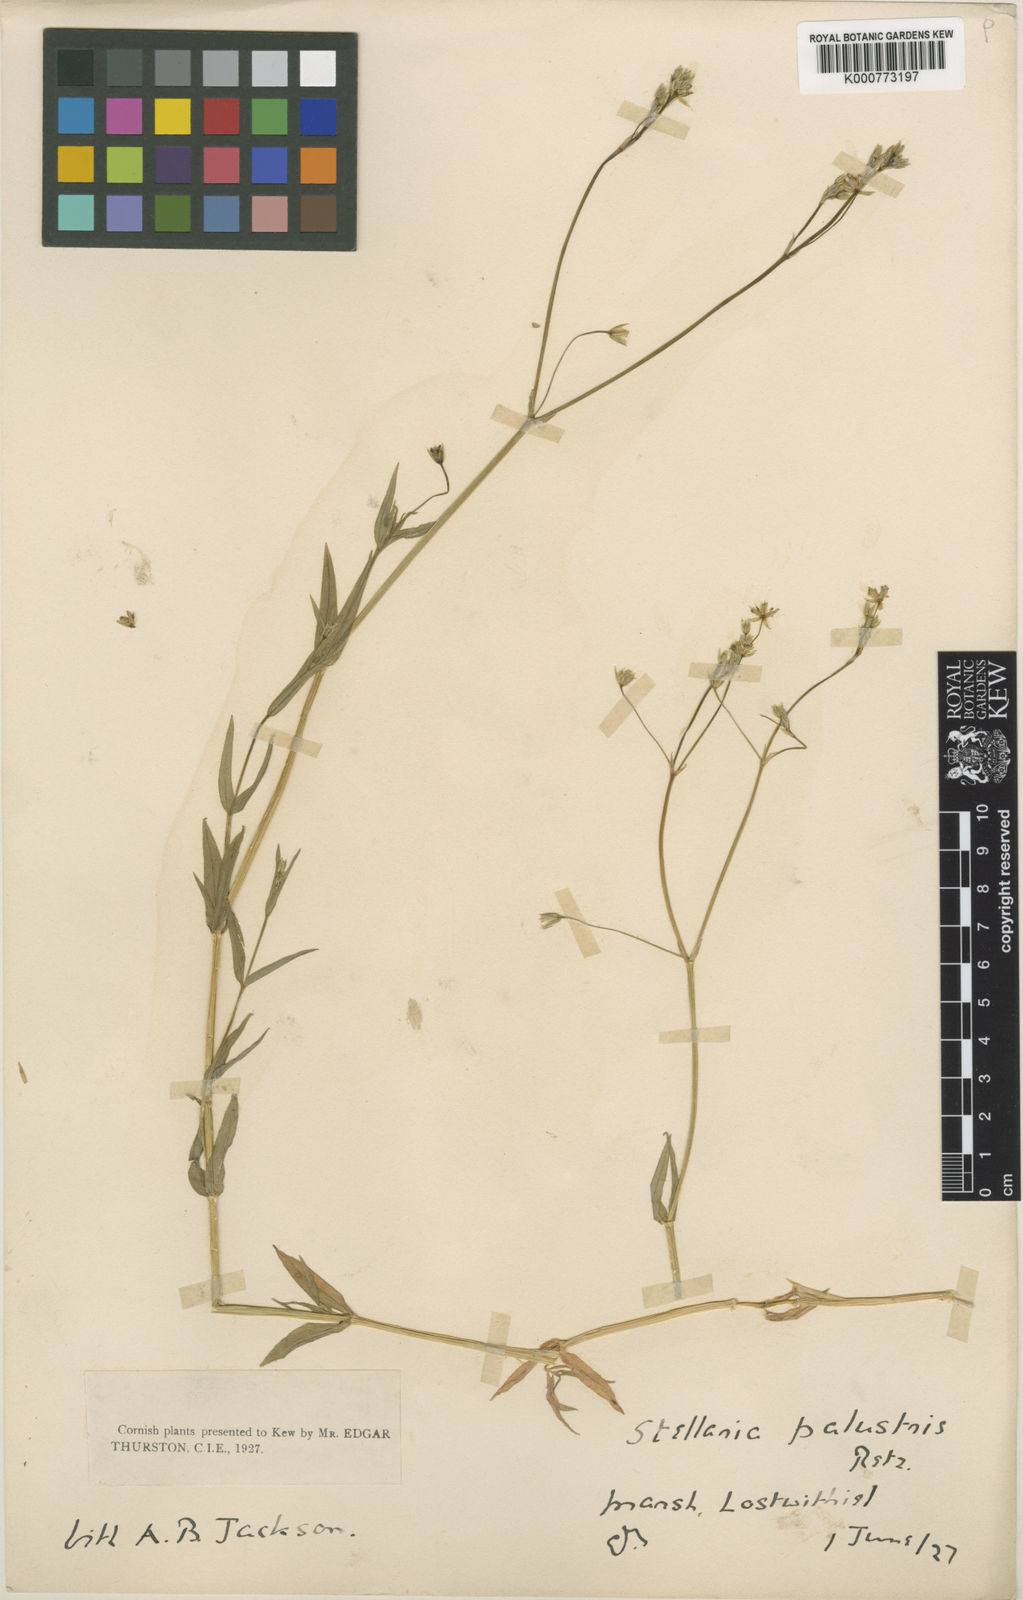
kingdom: Plantae
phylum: Tracheophyta
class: Magnoliopsida
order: Caryophyllales
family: Caryophyllaceae
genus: Stellaria
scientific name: Stellaria
